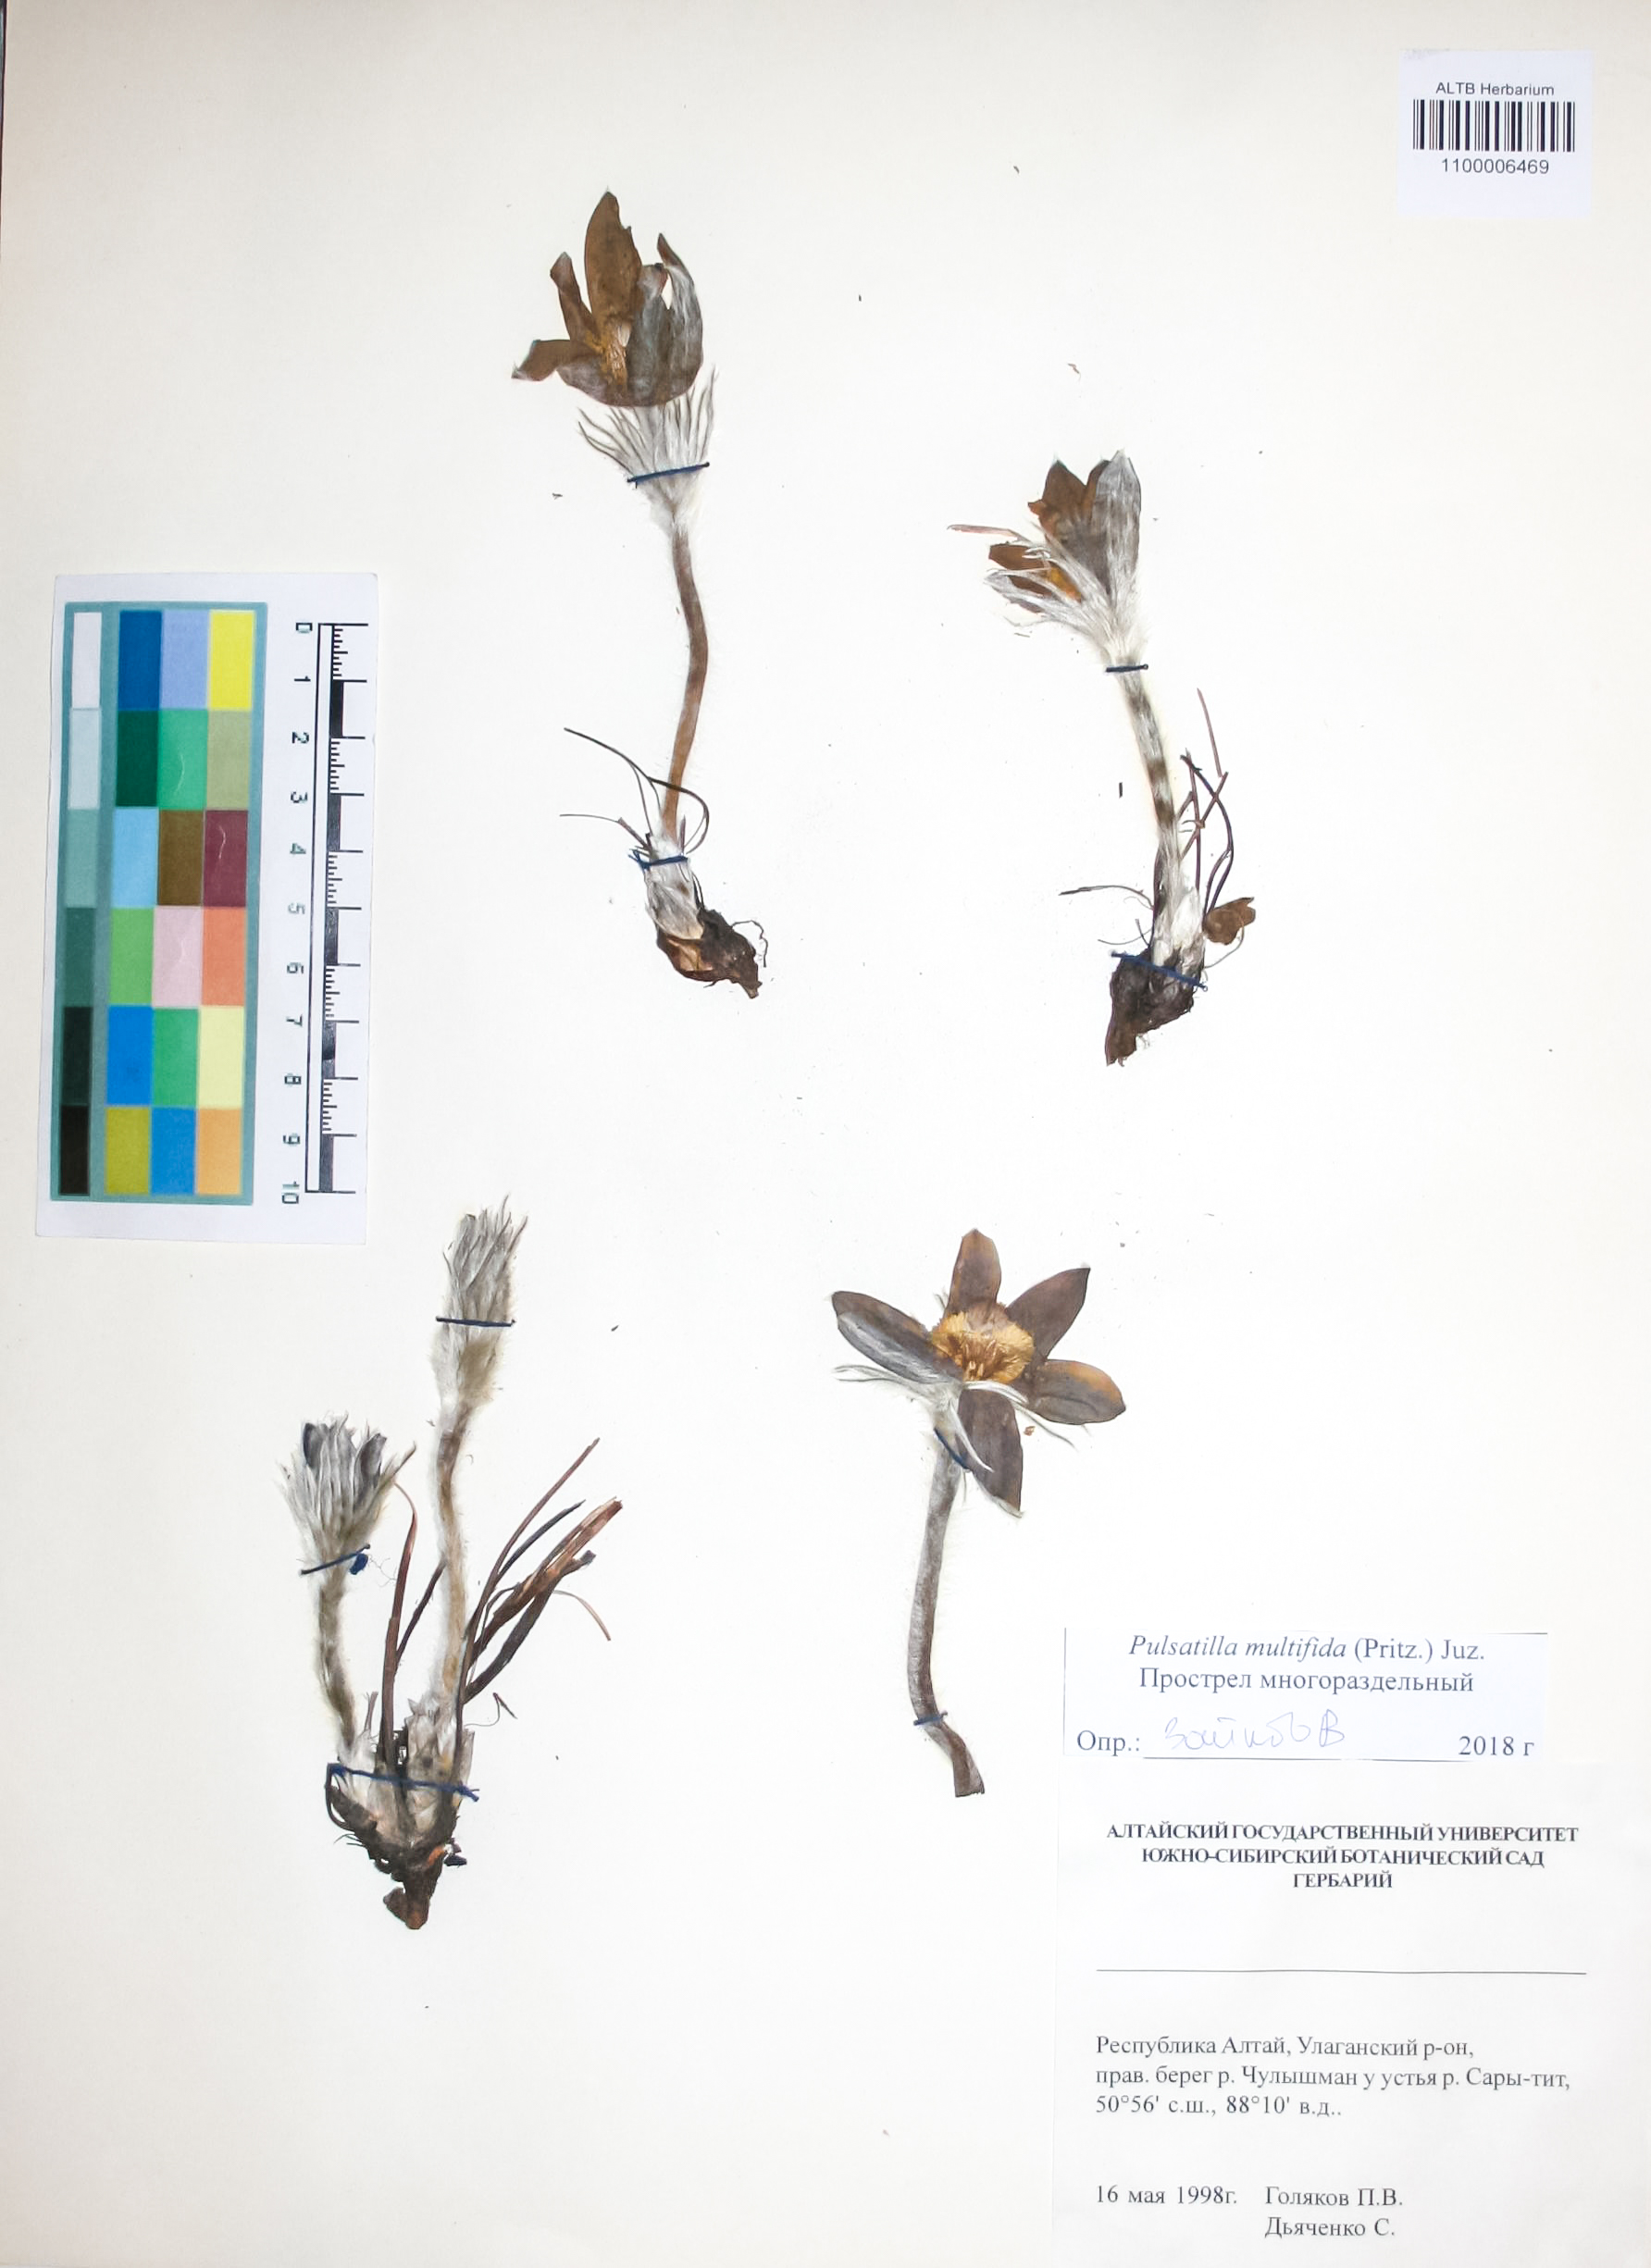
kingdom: Plantae
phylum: Tracheophyta
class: Magnoliopsida
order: Ranunculales
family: Ranunculaceae
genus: Pulsatilla
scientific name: Pulsatilla patens
